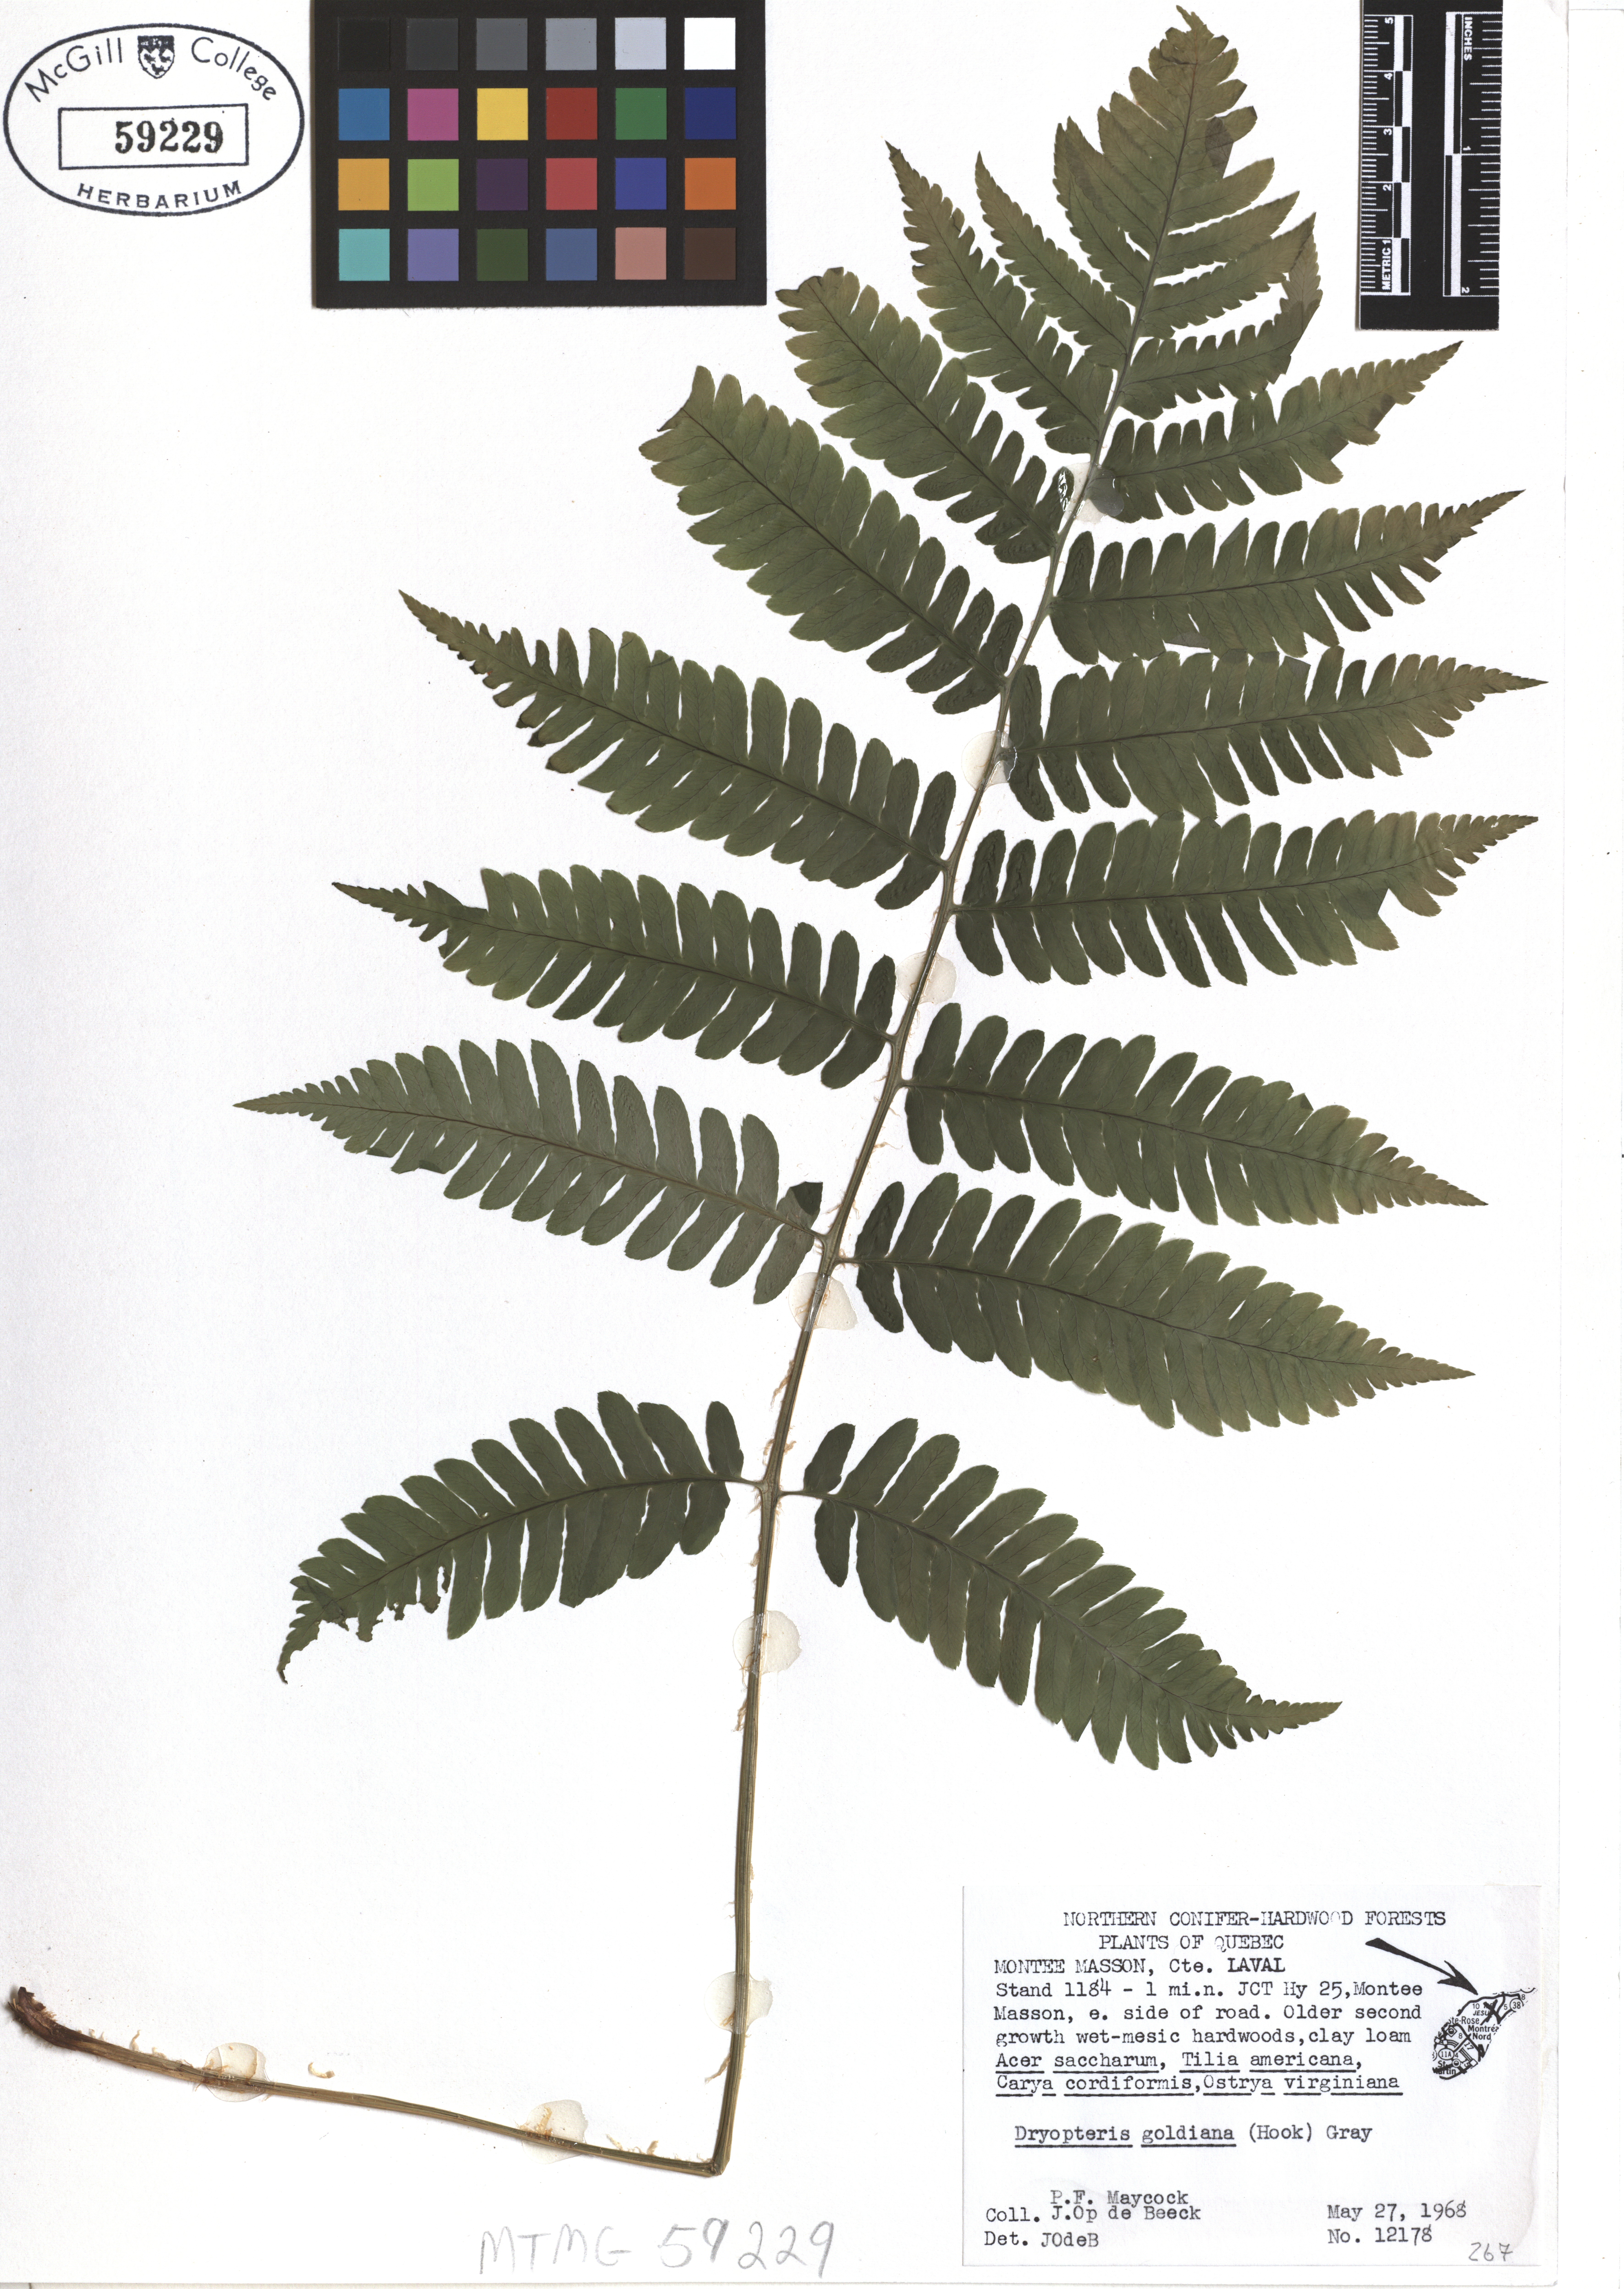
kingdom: Plantae
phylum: Tracheophyta
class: Polypodiopsida
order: Polypodiales
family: Dryopteridaceae
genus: Dryopteris
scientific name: Dryopteris goeldiana
